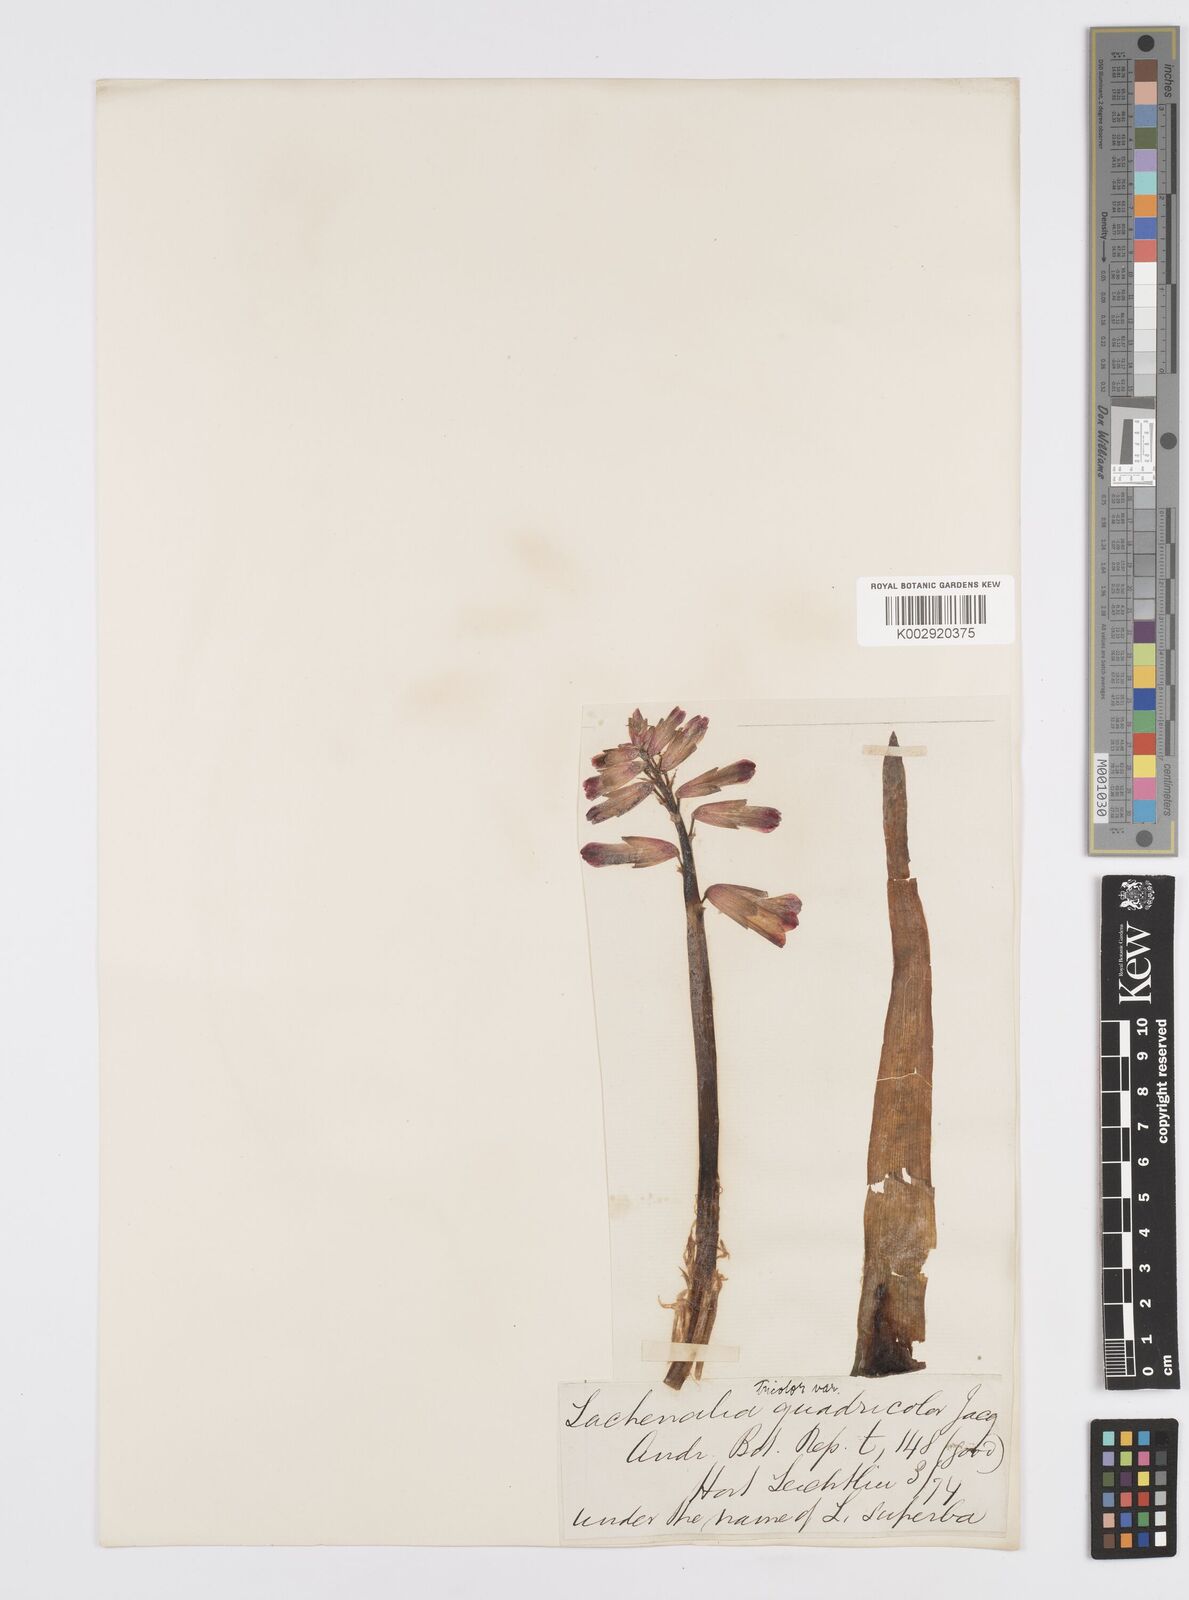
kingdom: Plantae
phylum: Tracheophyta
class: Liliopsida
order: Asparagales
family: Asparagaceae
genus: Lachenalia
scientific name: Lachenalia aloides
